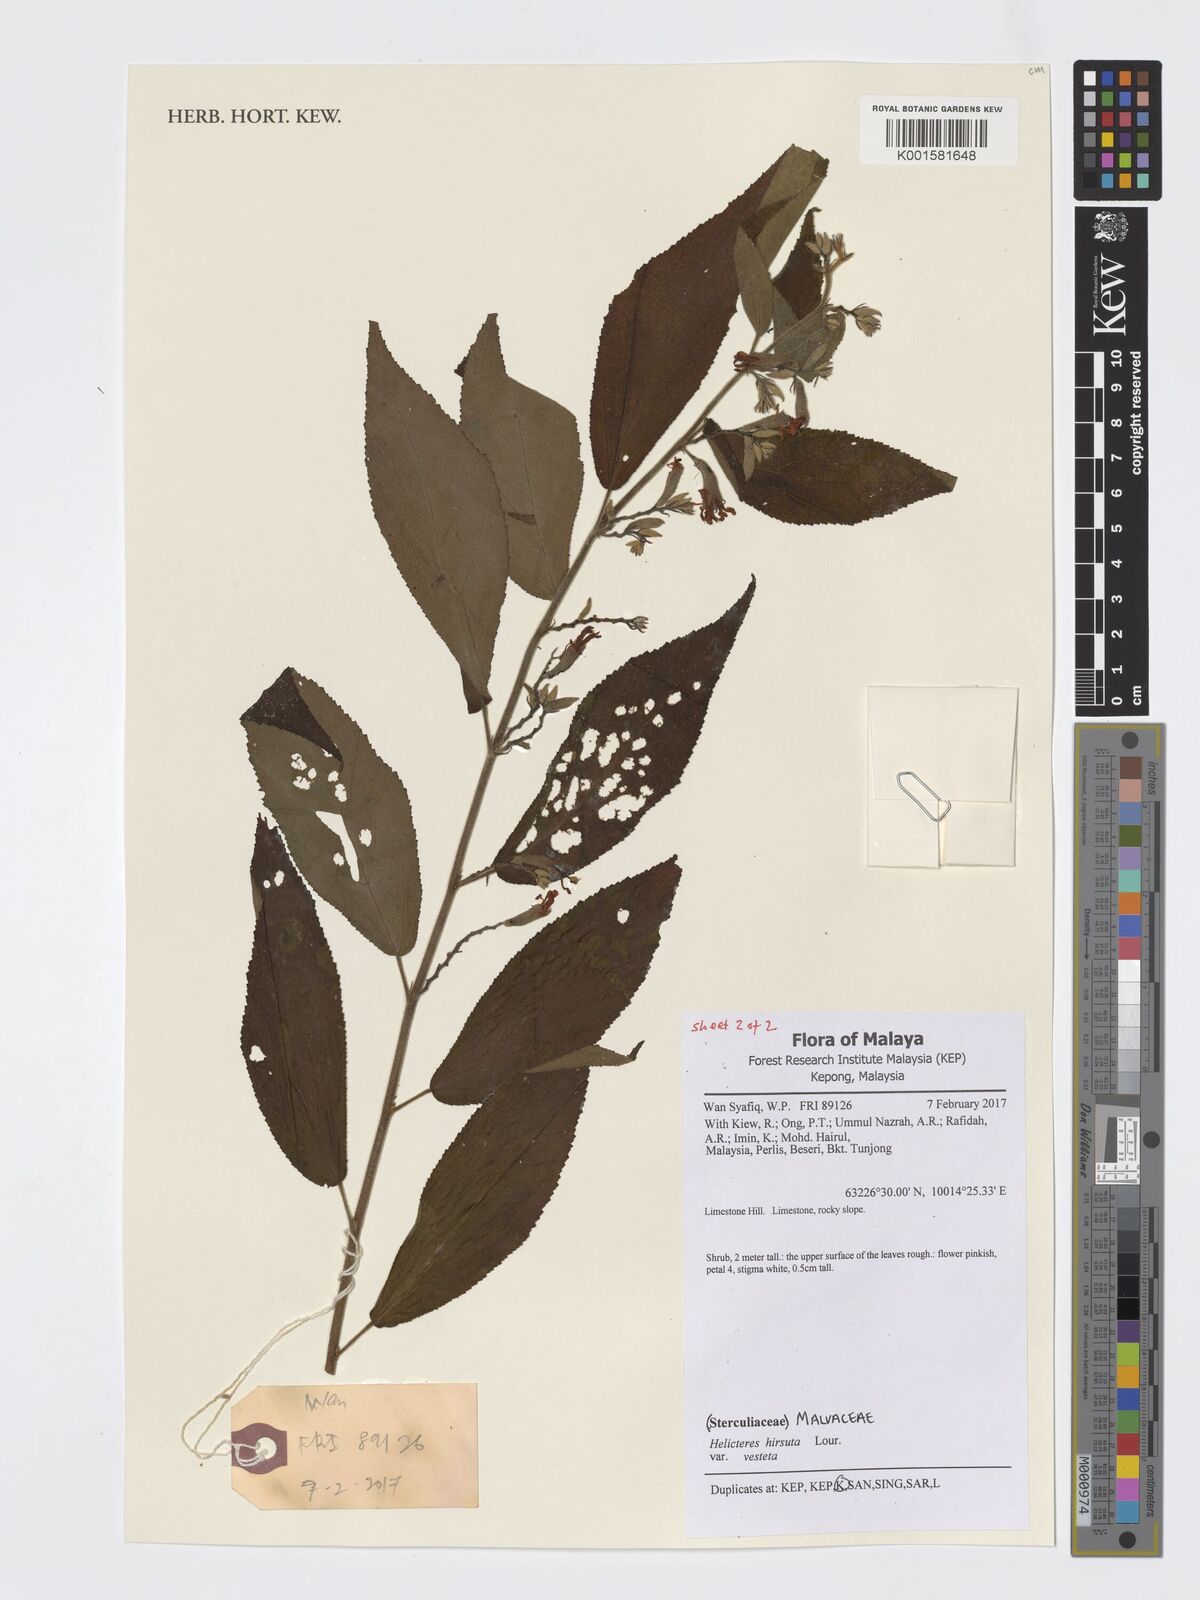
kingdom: Plantae
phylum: Tracheophyta
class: Magnoliopsida
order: Malvales
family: Malvaceae
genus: Helicteres
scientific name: Helicteres hirsuta
